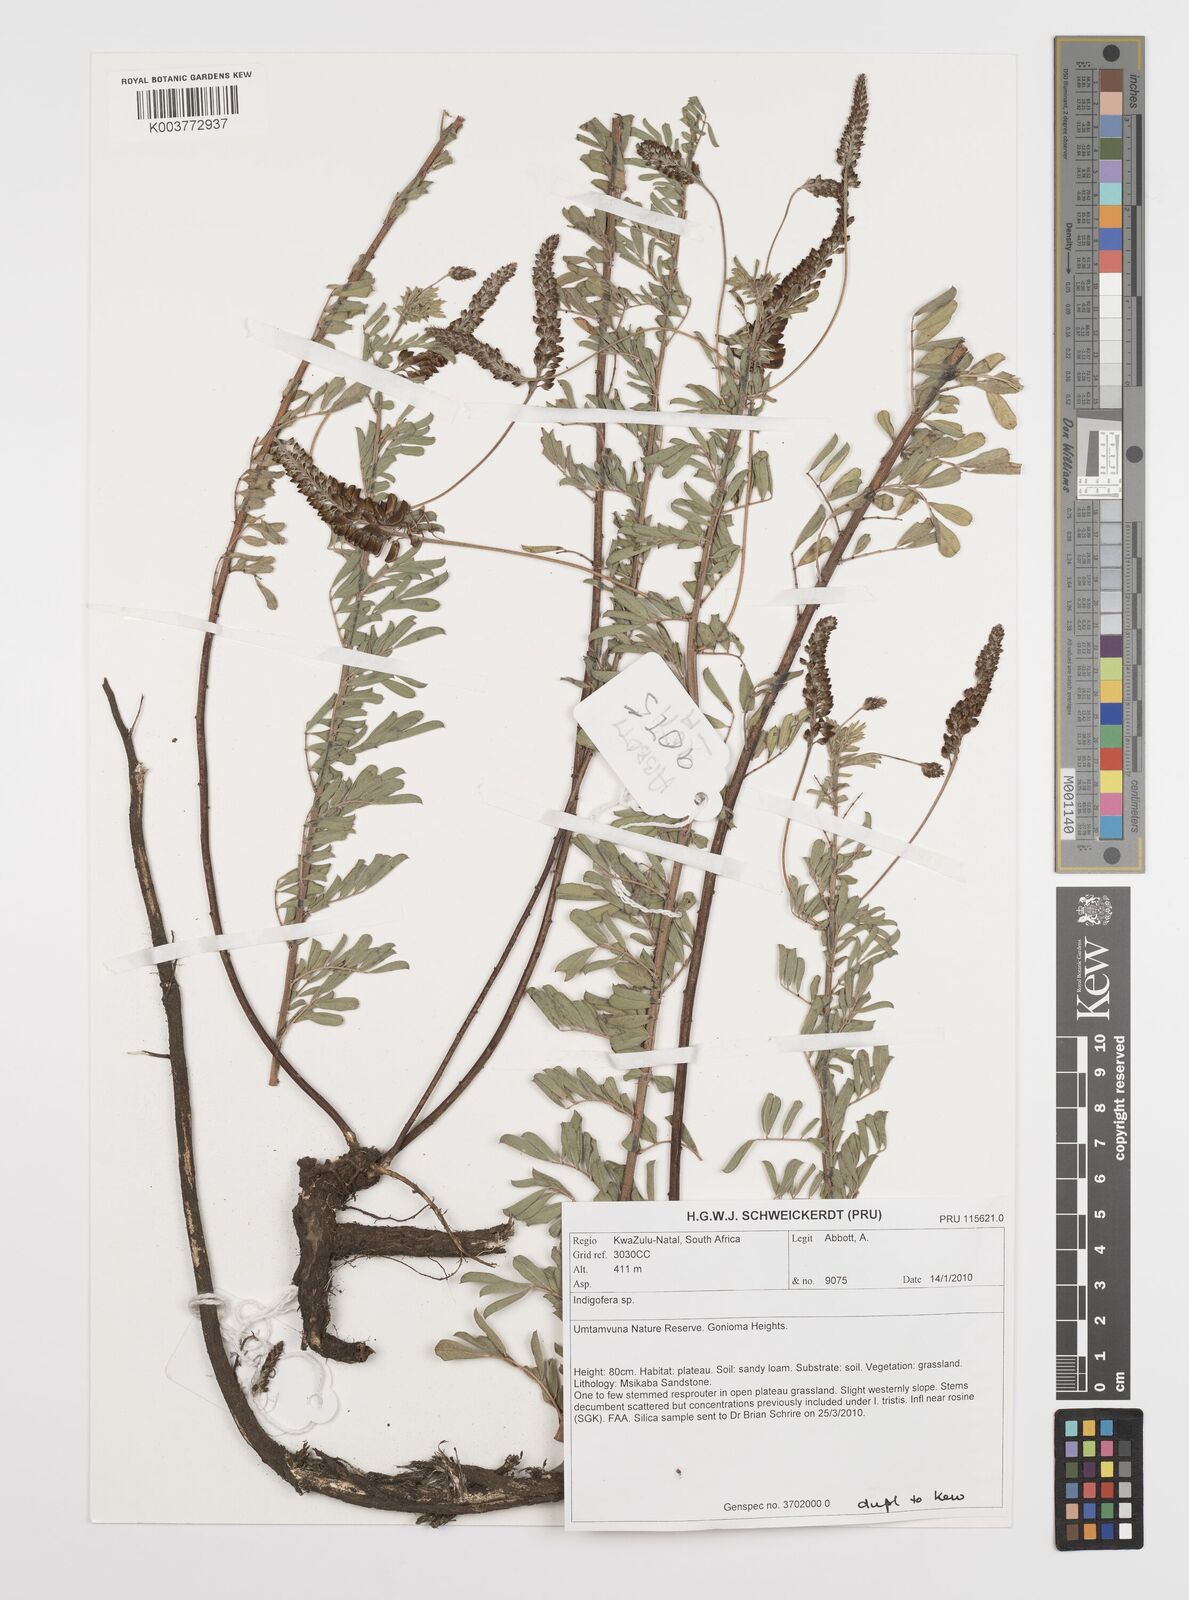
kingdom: Plantae
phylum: Tracheophyta
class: Magnoliopsida
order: Fabales
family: Fabaceae
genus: Indigofera
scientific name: Indigofera
